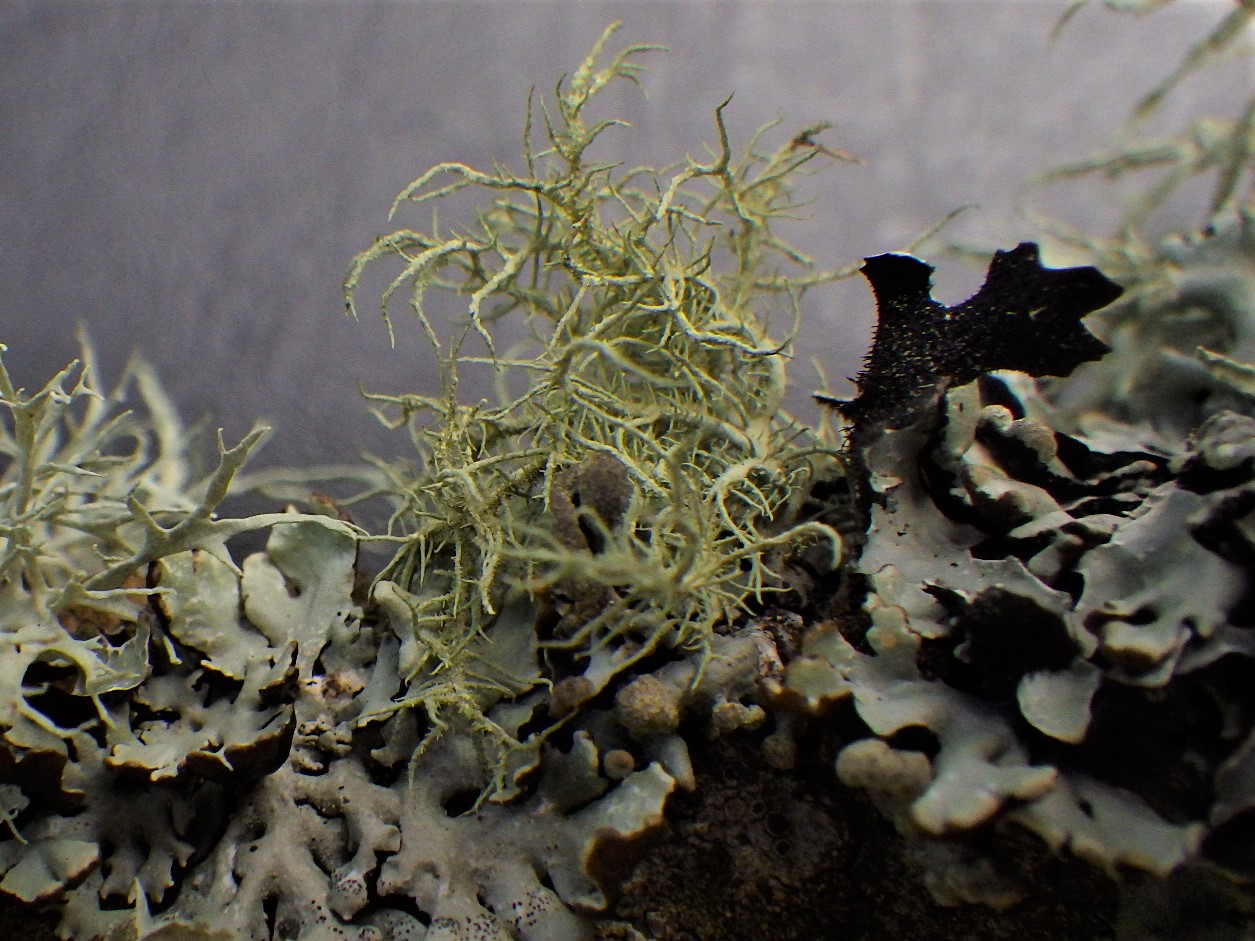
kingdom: Fungi
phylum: Ascomycota
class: Lecanoromycetes
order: Lecanorales
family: Parmeliaceae
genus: Usnea
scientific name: Usnea hirta
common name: liden skæglav
